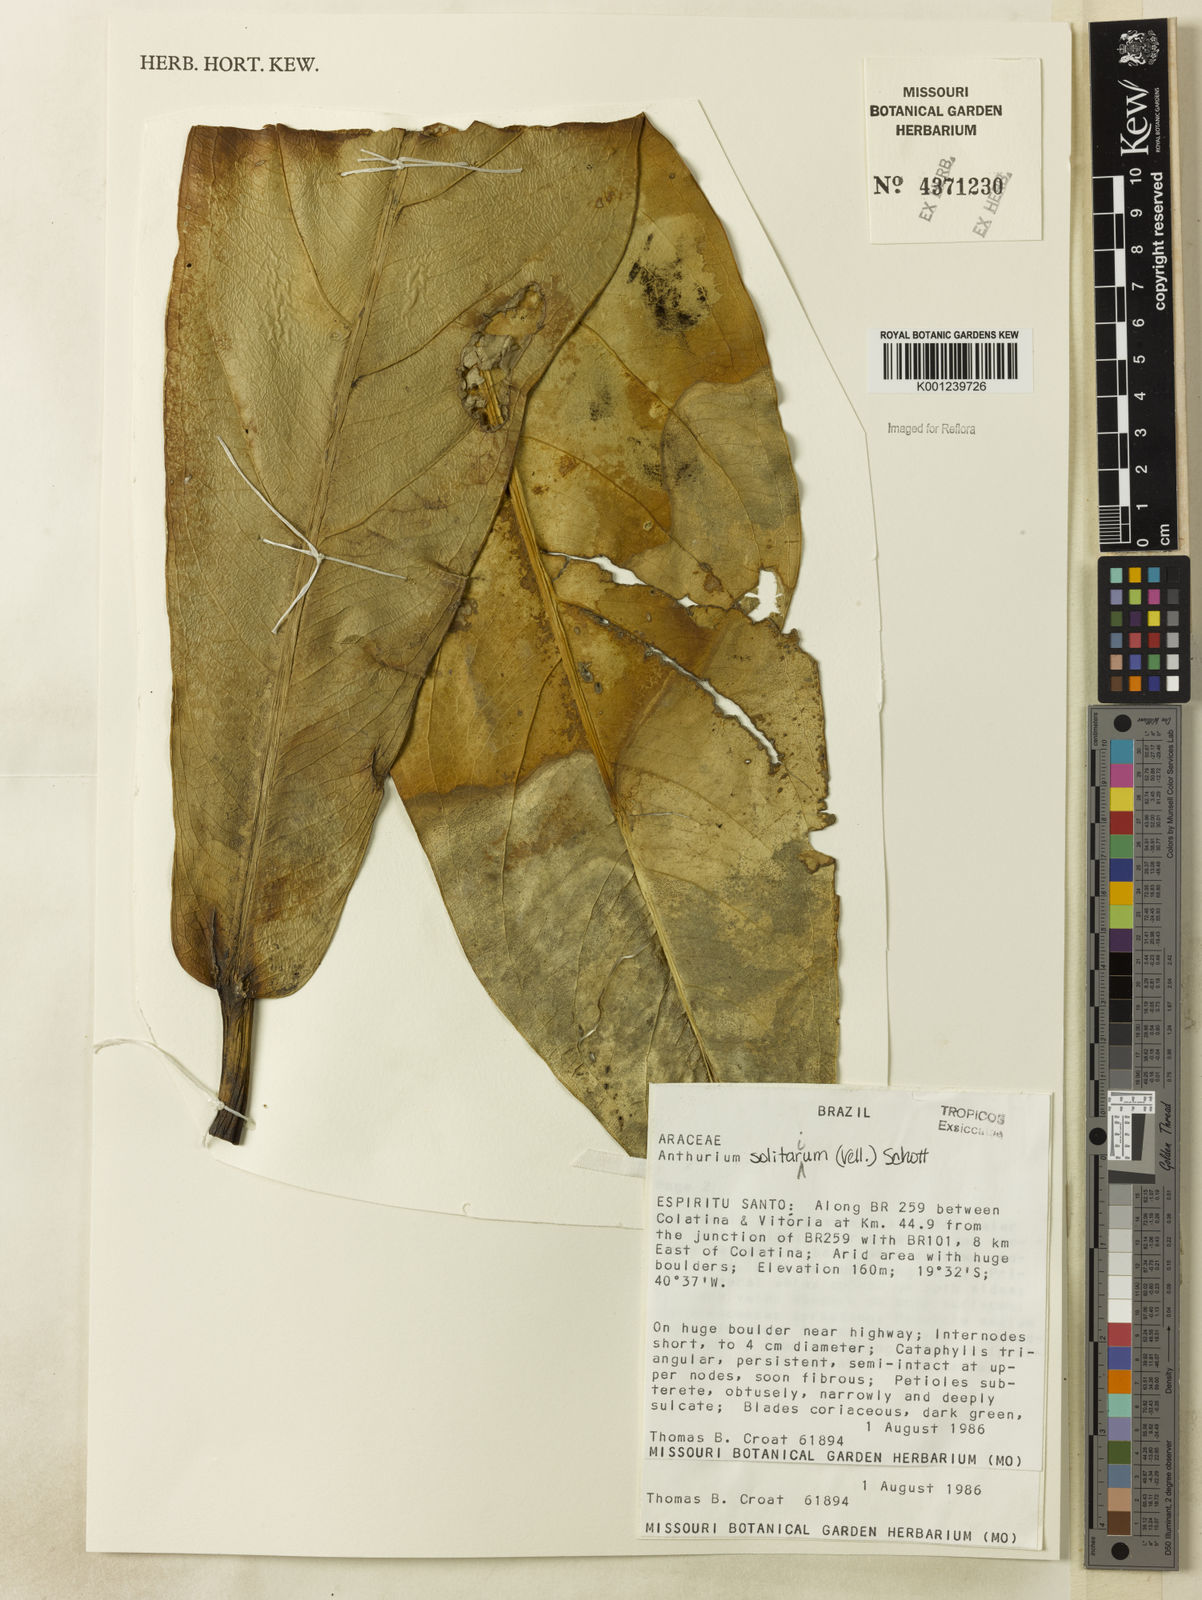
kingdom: Plantae
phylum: Tracheophyta
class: Liliopsida
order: Alismatales
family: Araceae
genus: Anthurium
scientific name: Anthurium solitarium
